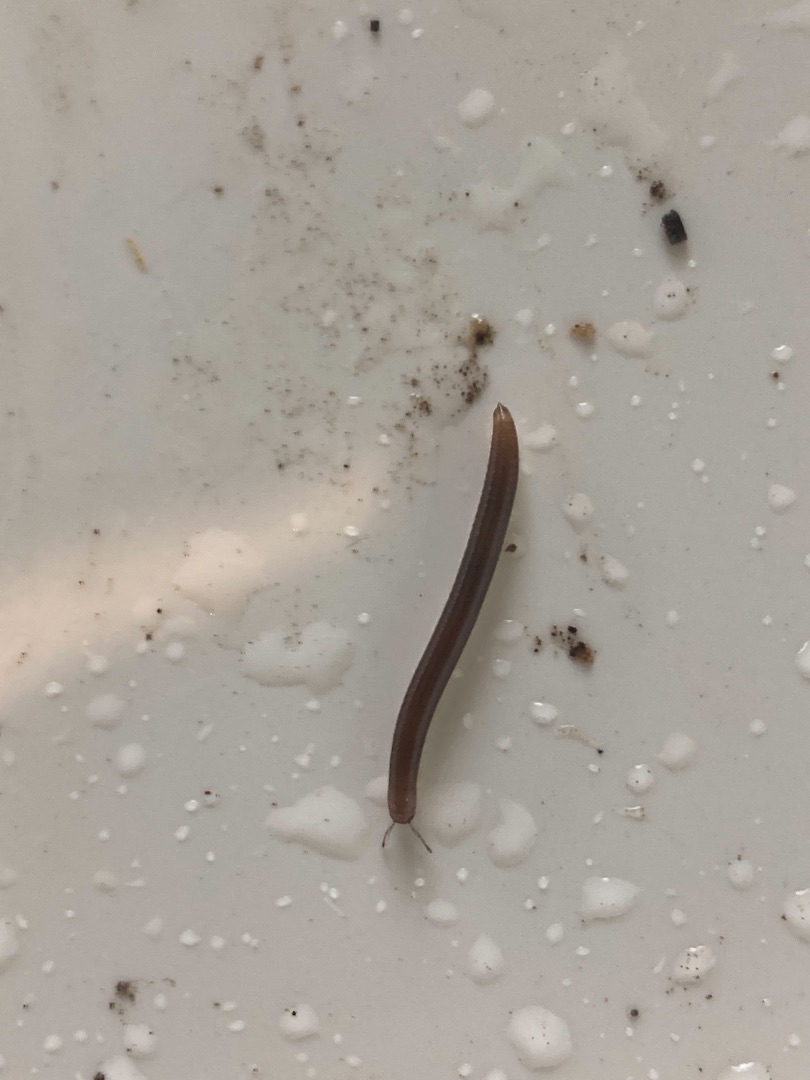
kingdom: Animalia
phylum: Arthropoda
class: Diplopoda
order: Julida
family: Julidae
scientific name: Julidae
